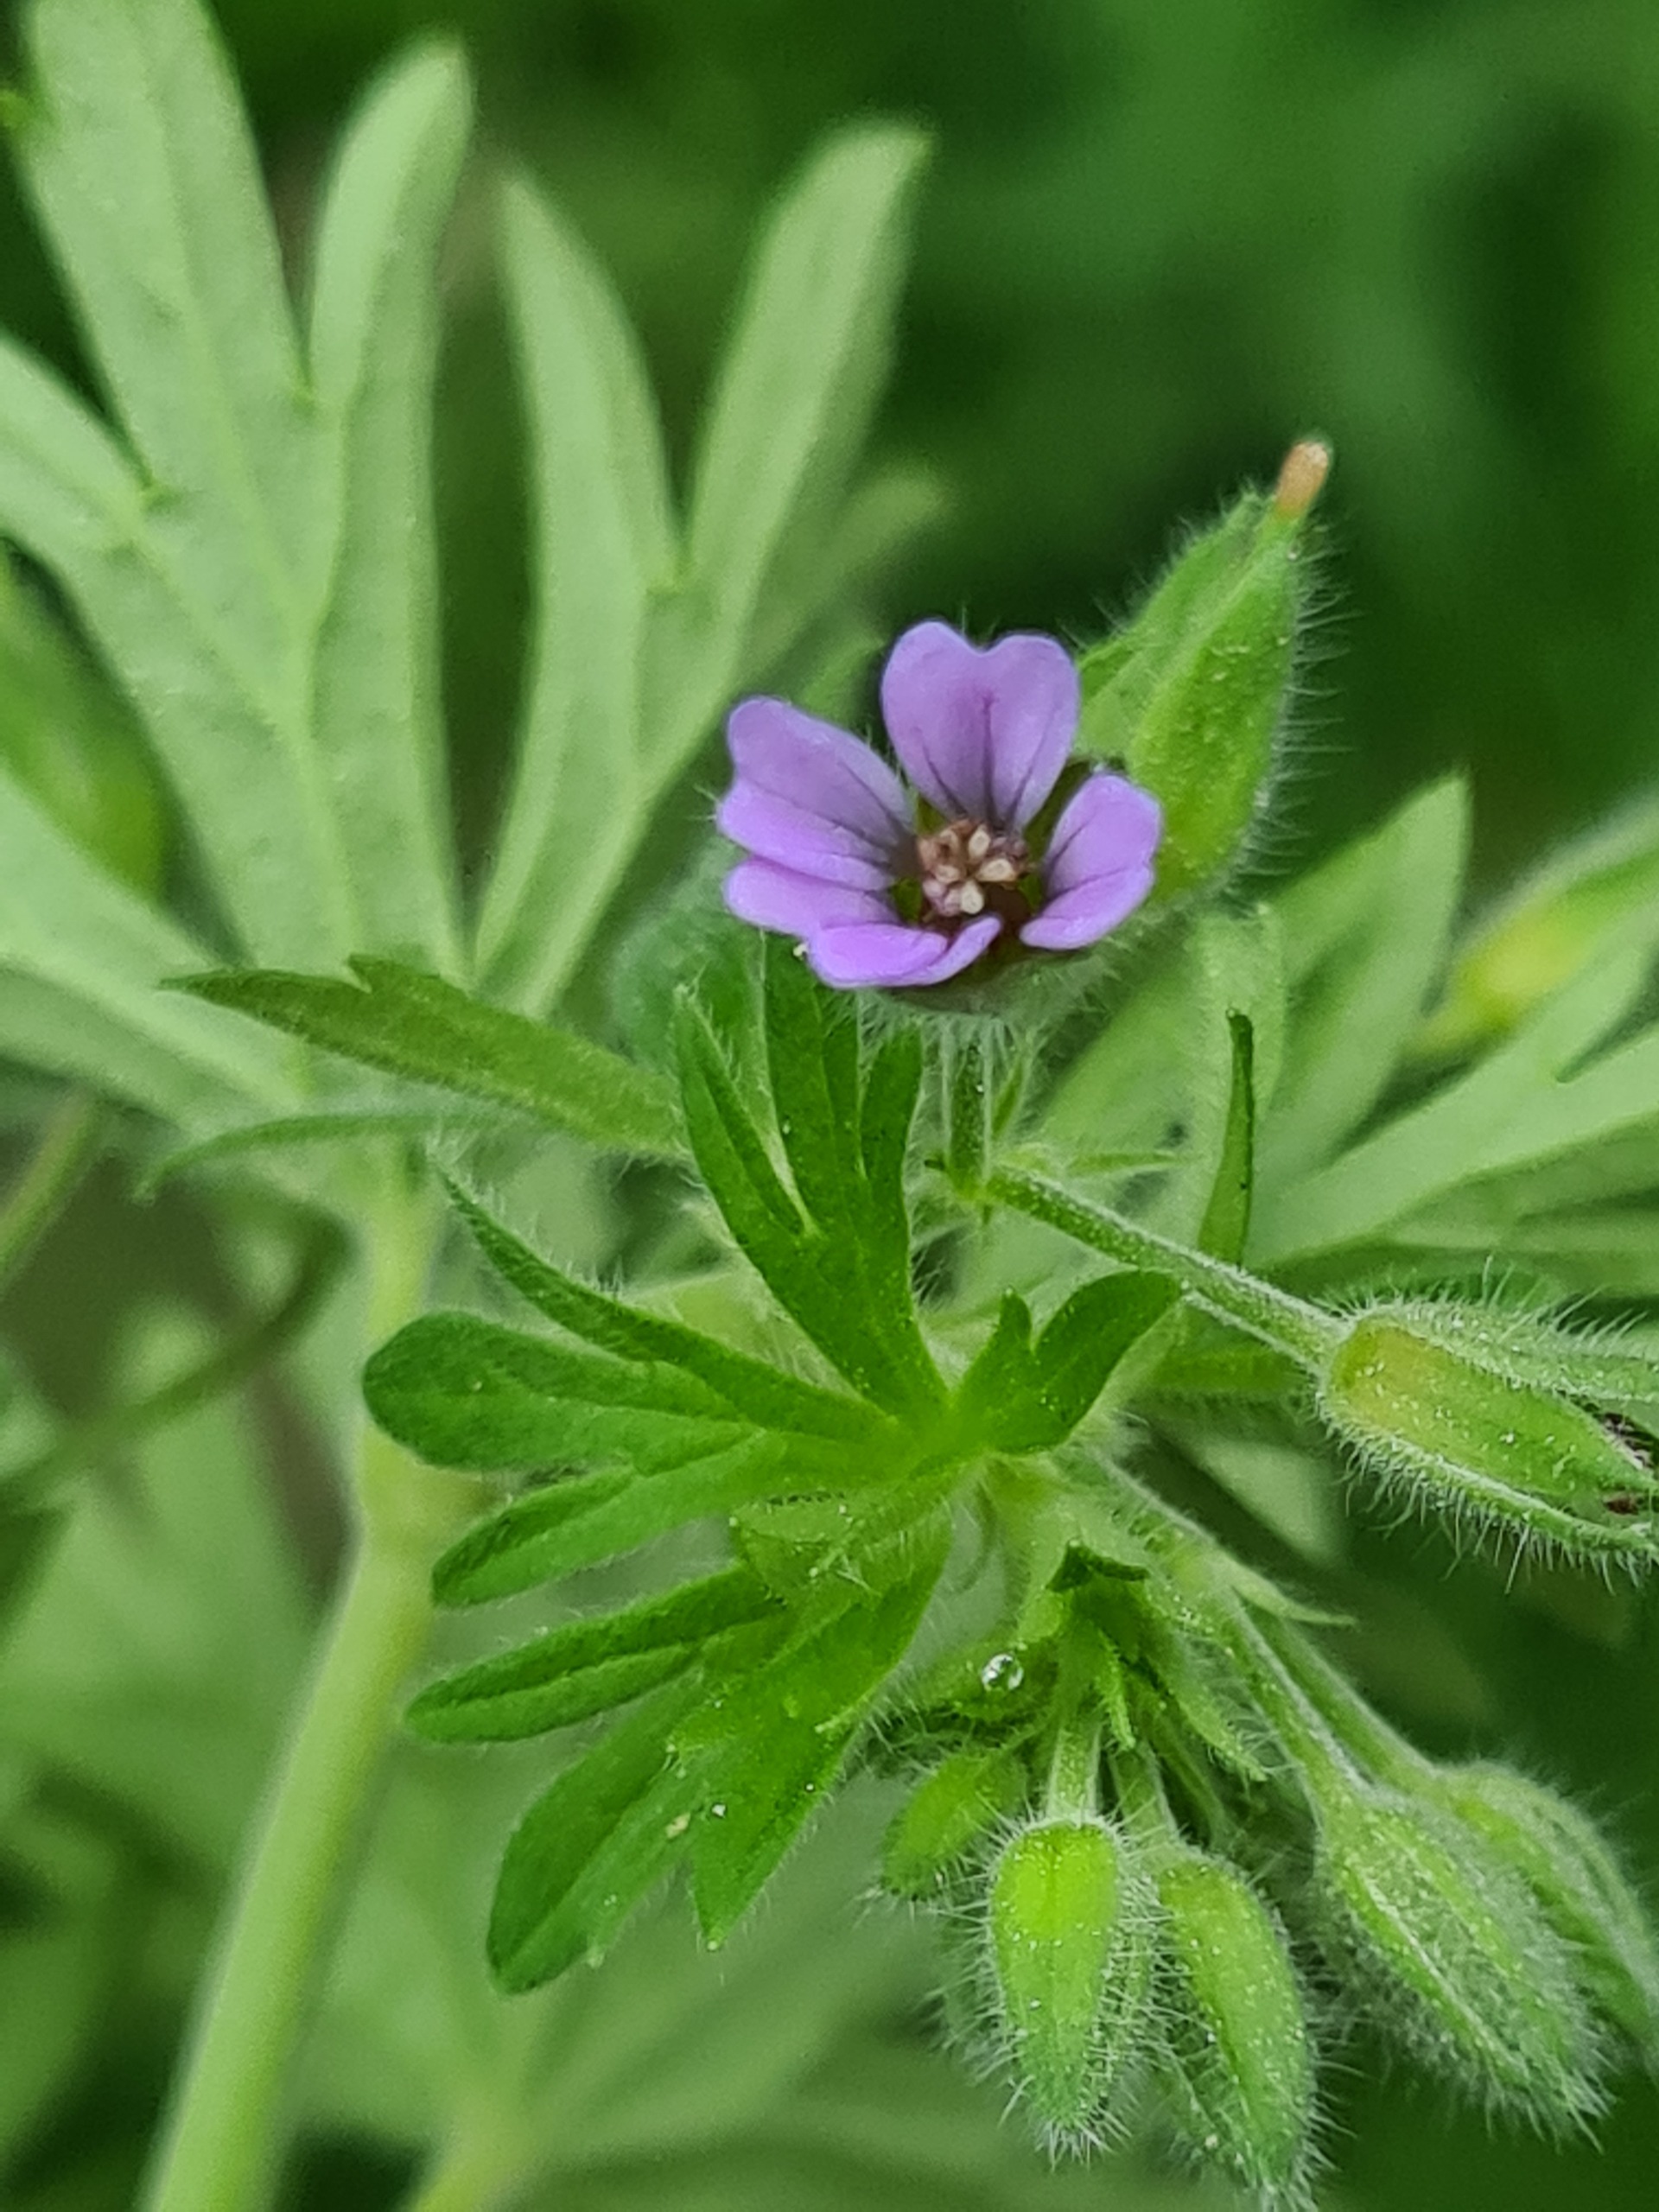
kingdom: Plantae
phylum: Tracheophyta
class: Magnoliopsida
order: Geraniales
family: Geraniaceae
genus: Geranium
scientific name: Geranium pusillum
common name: Liden storkenæb
